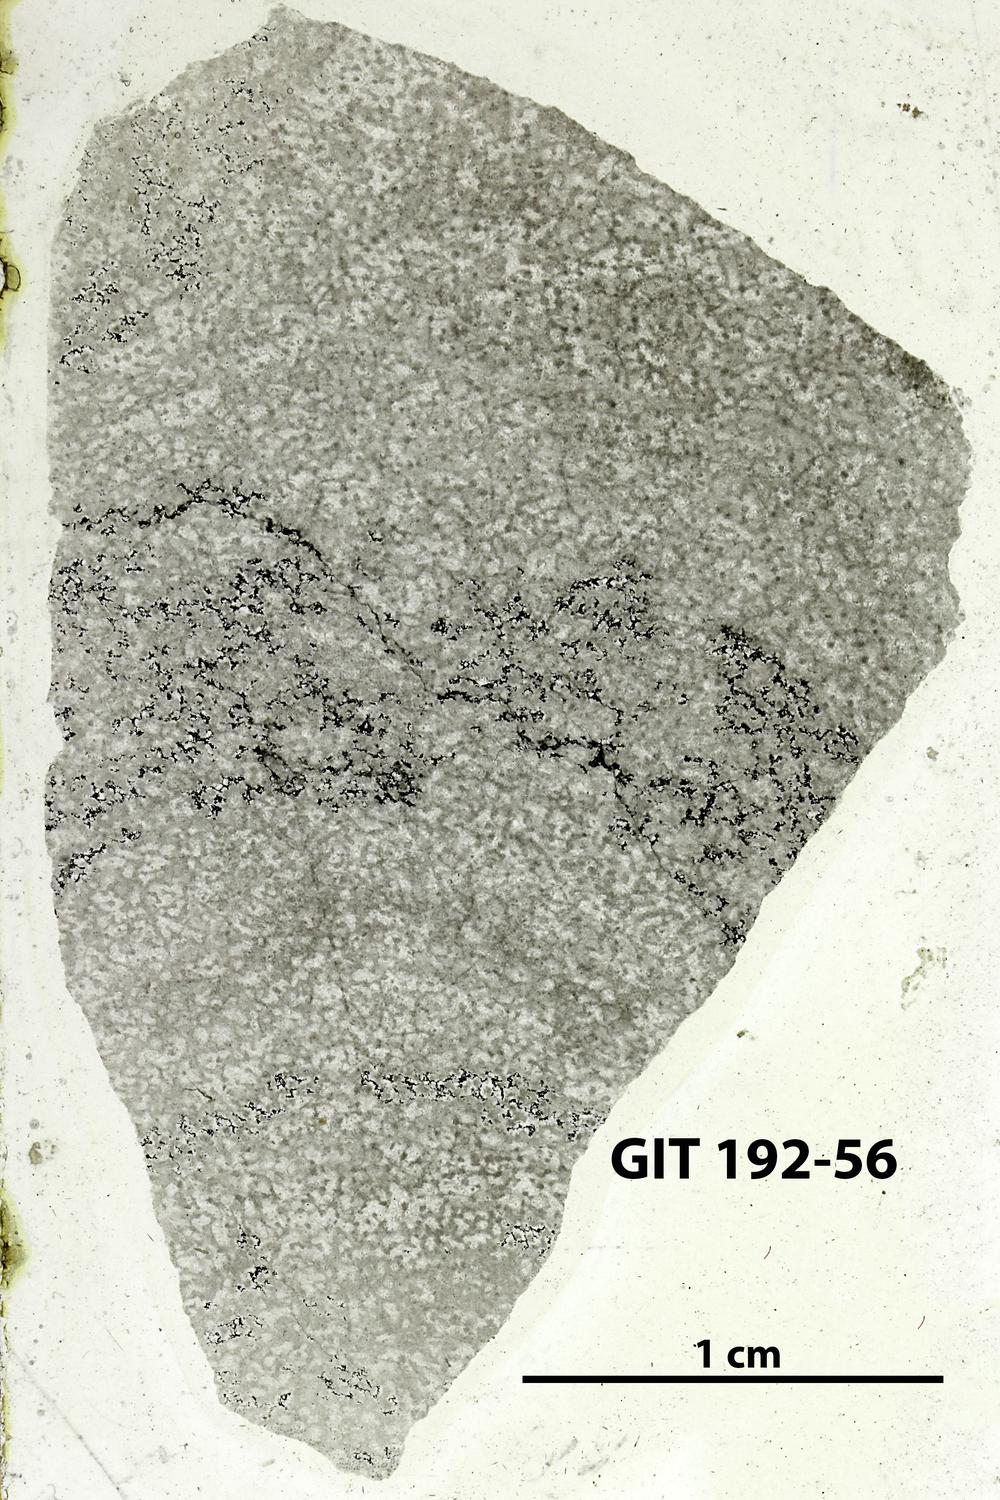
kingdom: Animalia
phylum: Porifera
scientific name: Porifera
